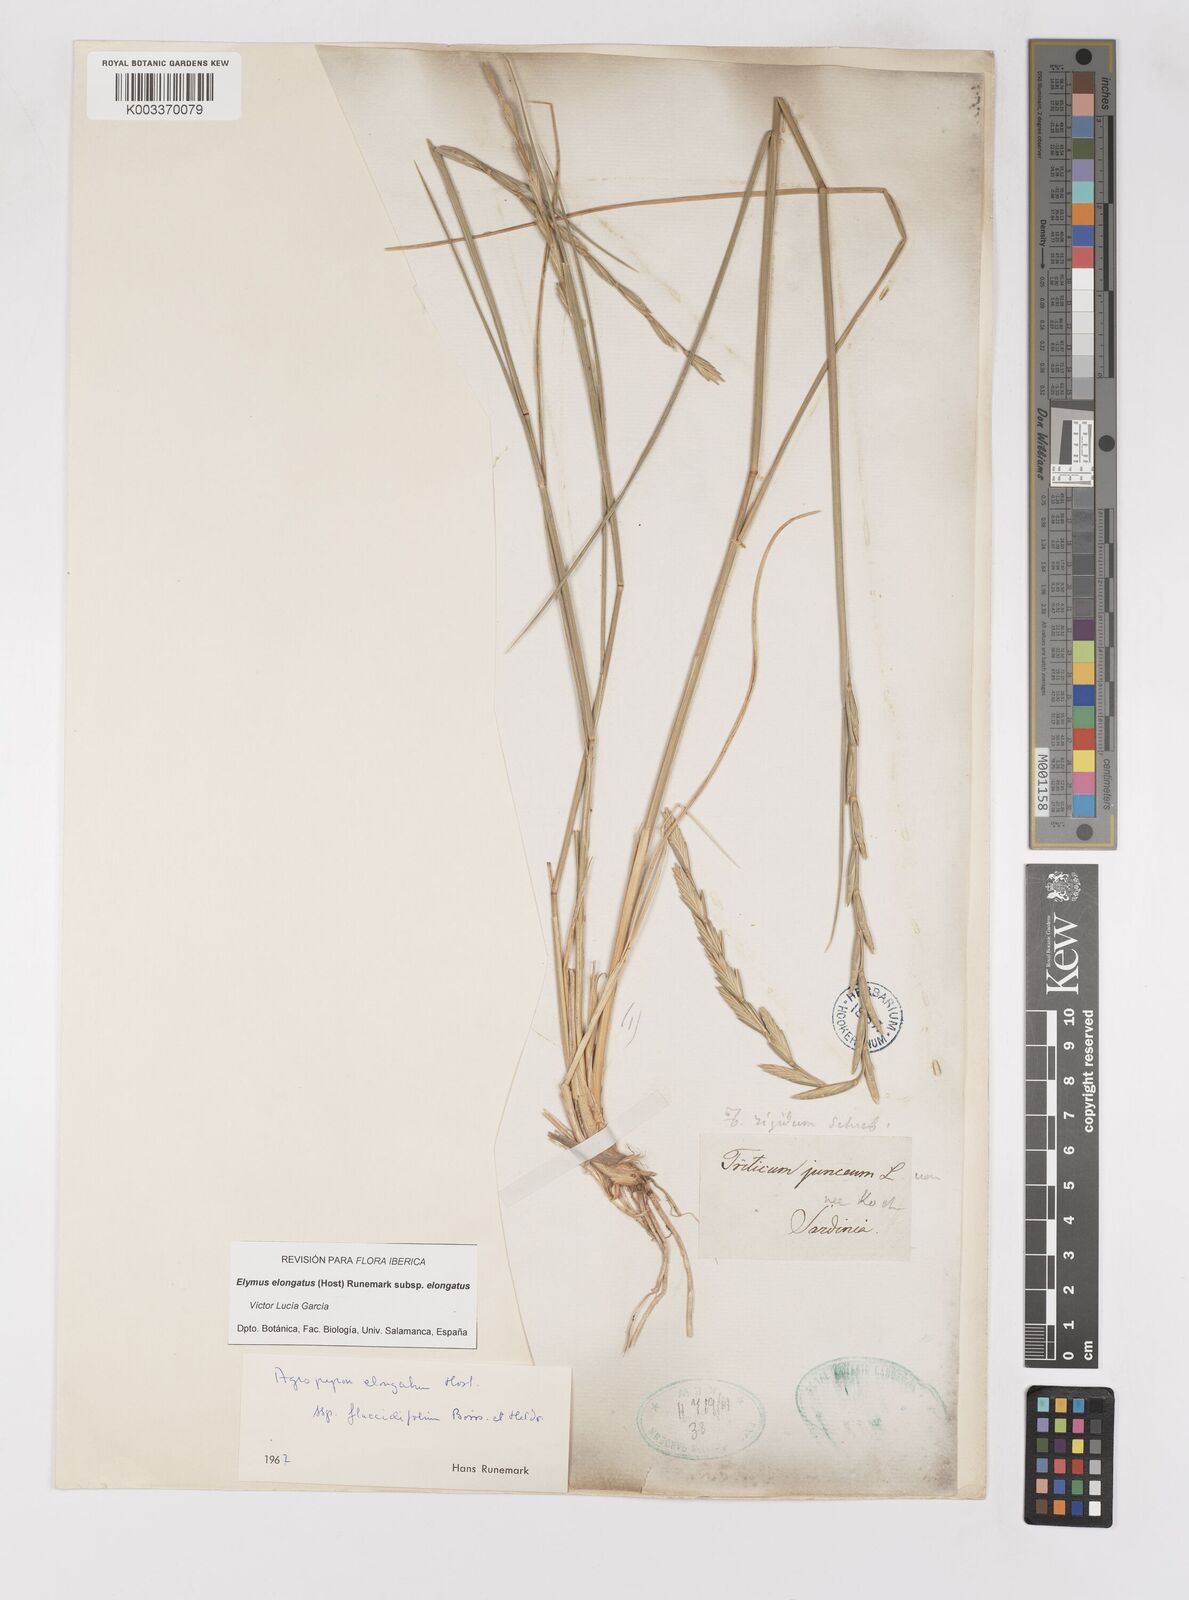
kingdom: Plantae
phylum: Tracheophyta
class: Liliopsida
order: Poales
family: Poaceae
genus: Thinopyrum
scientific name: Thinopyrum elongatum
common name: Tall wheatgrass
